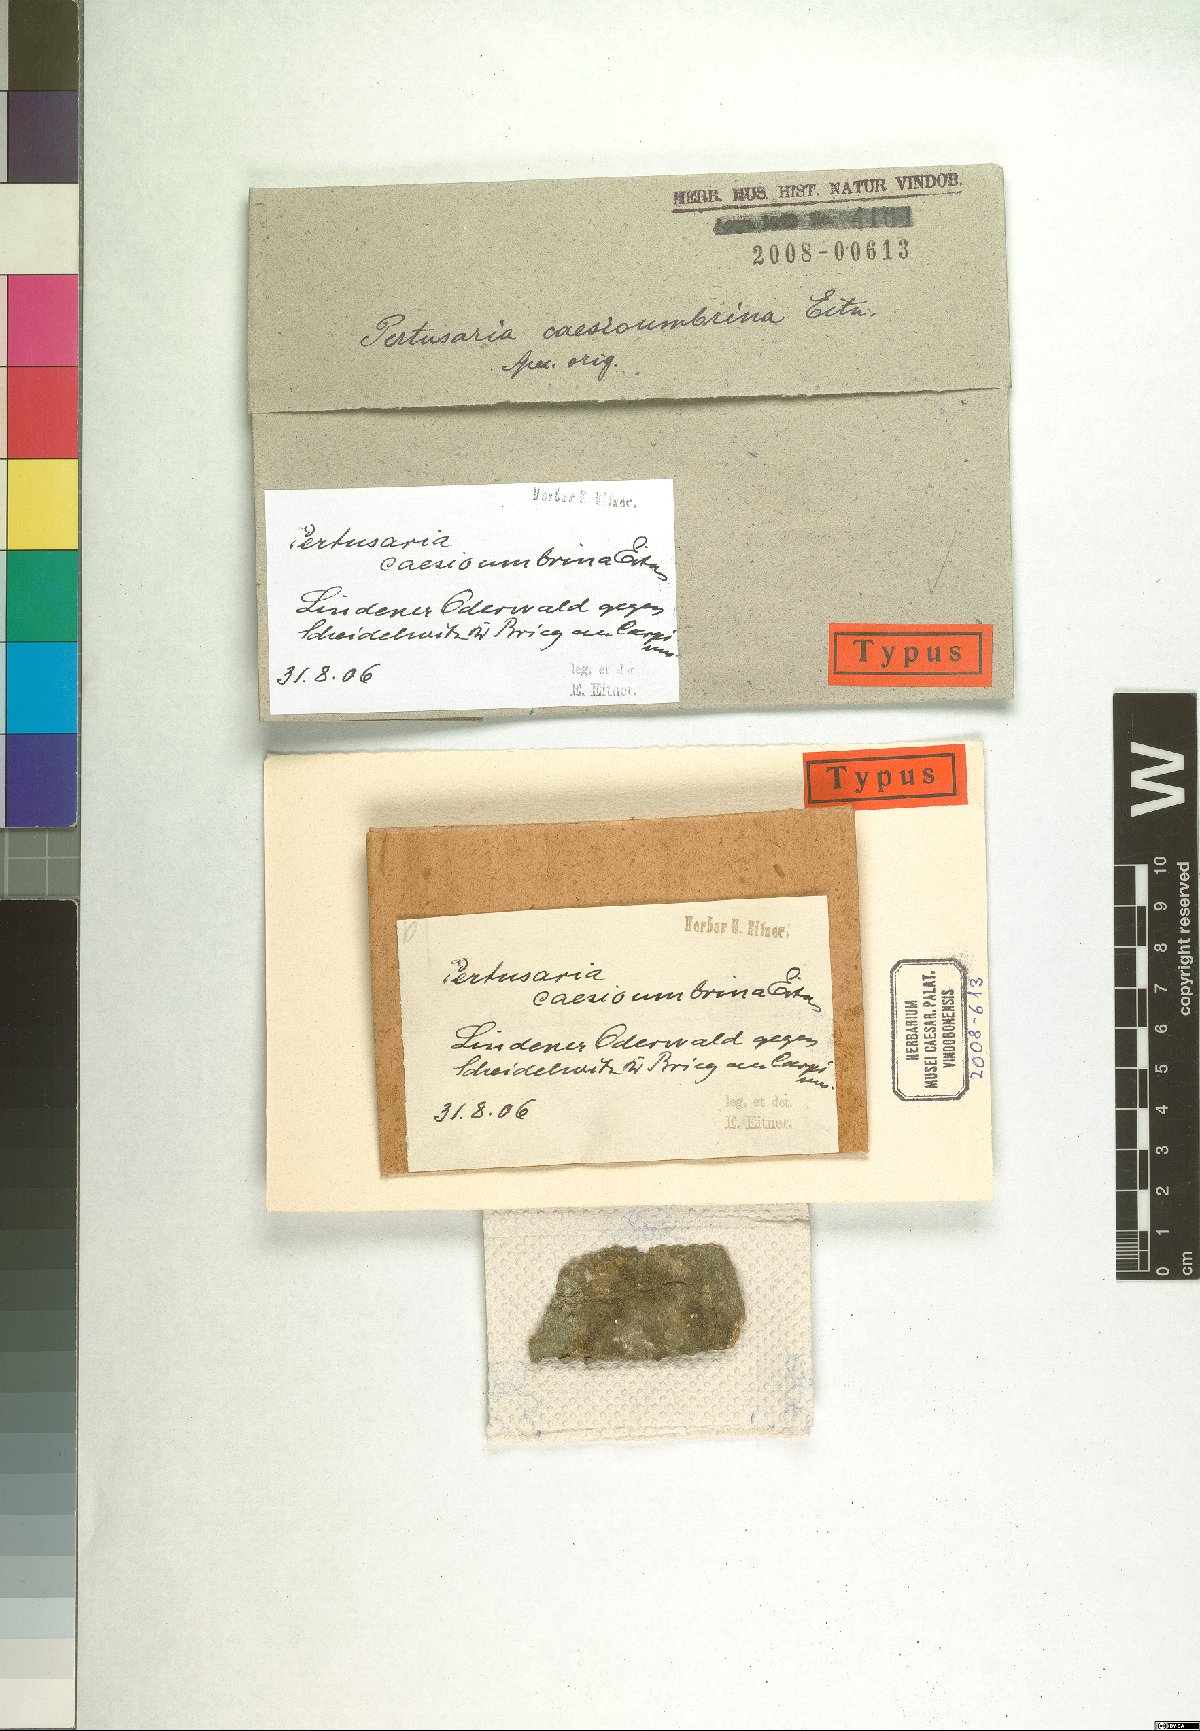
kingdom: Fungi
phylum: Ascomycota
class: Lecanoromycetes
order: Pertusariales
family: Pertusariaceae
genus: Pertusaria
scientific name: Pertusaria
